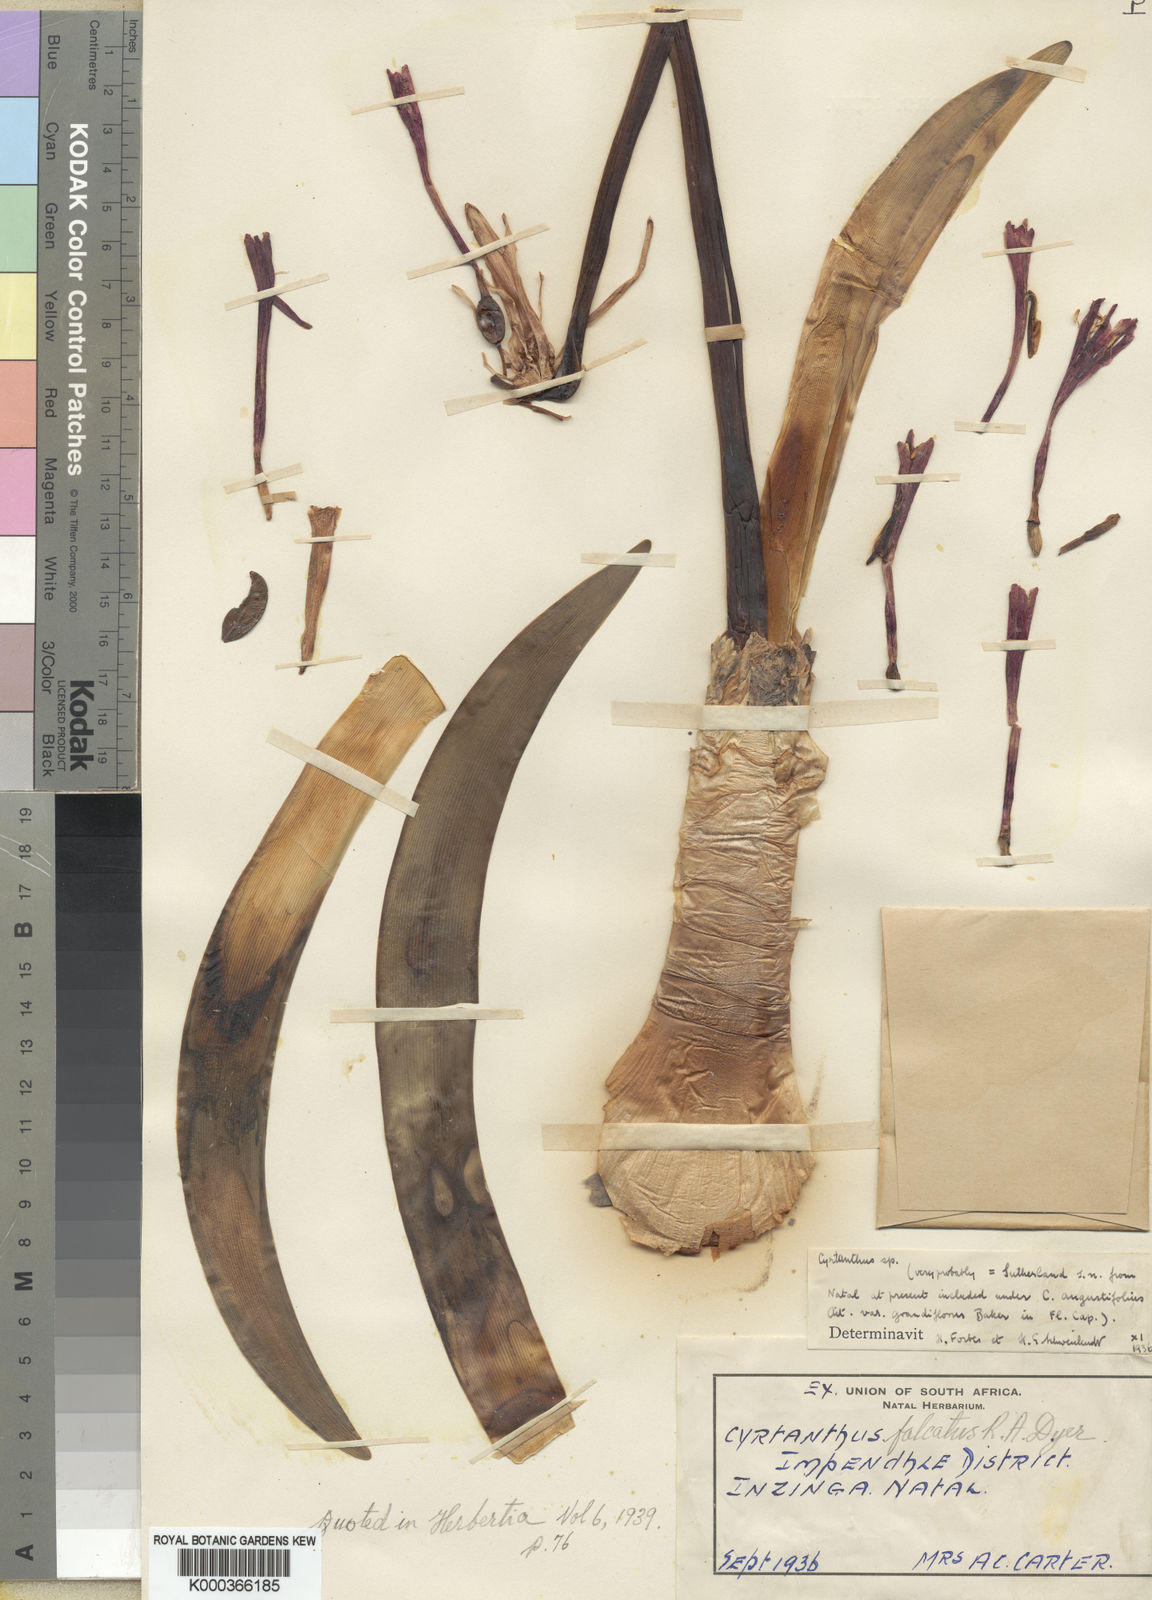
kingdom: Plantae
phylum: Tracheophyta
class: Liliopsida
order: Asparagales
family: Amaryllidaceae
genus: Cyrtanthus
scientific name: Cyrtanthus falcatus
